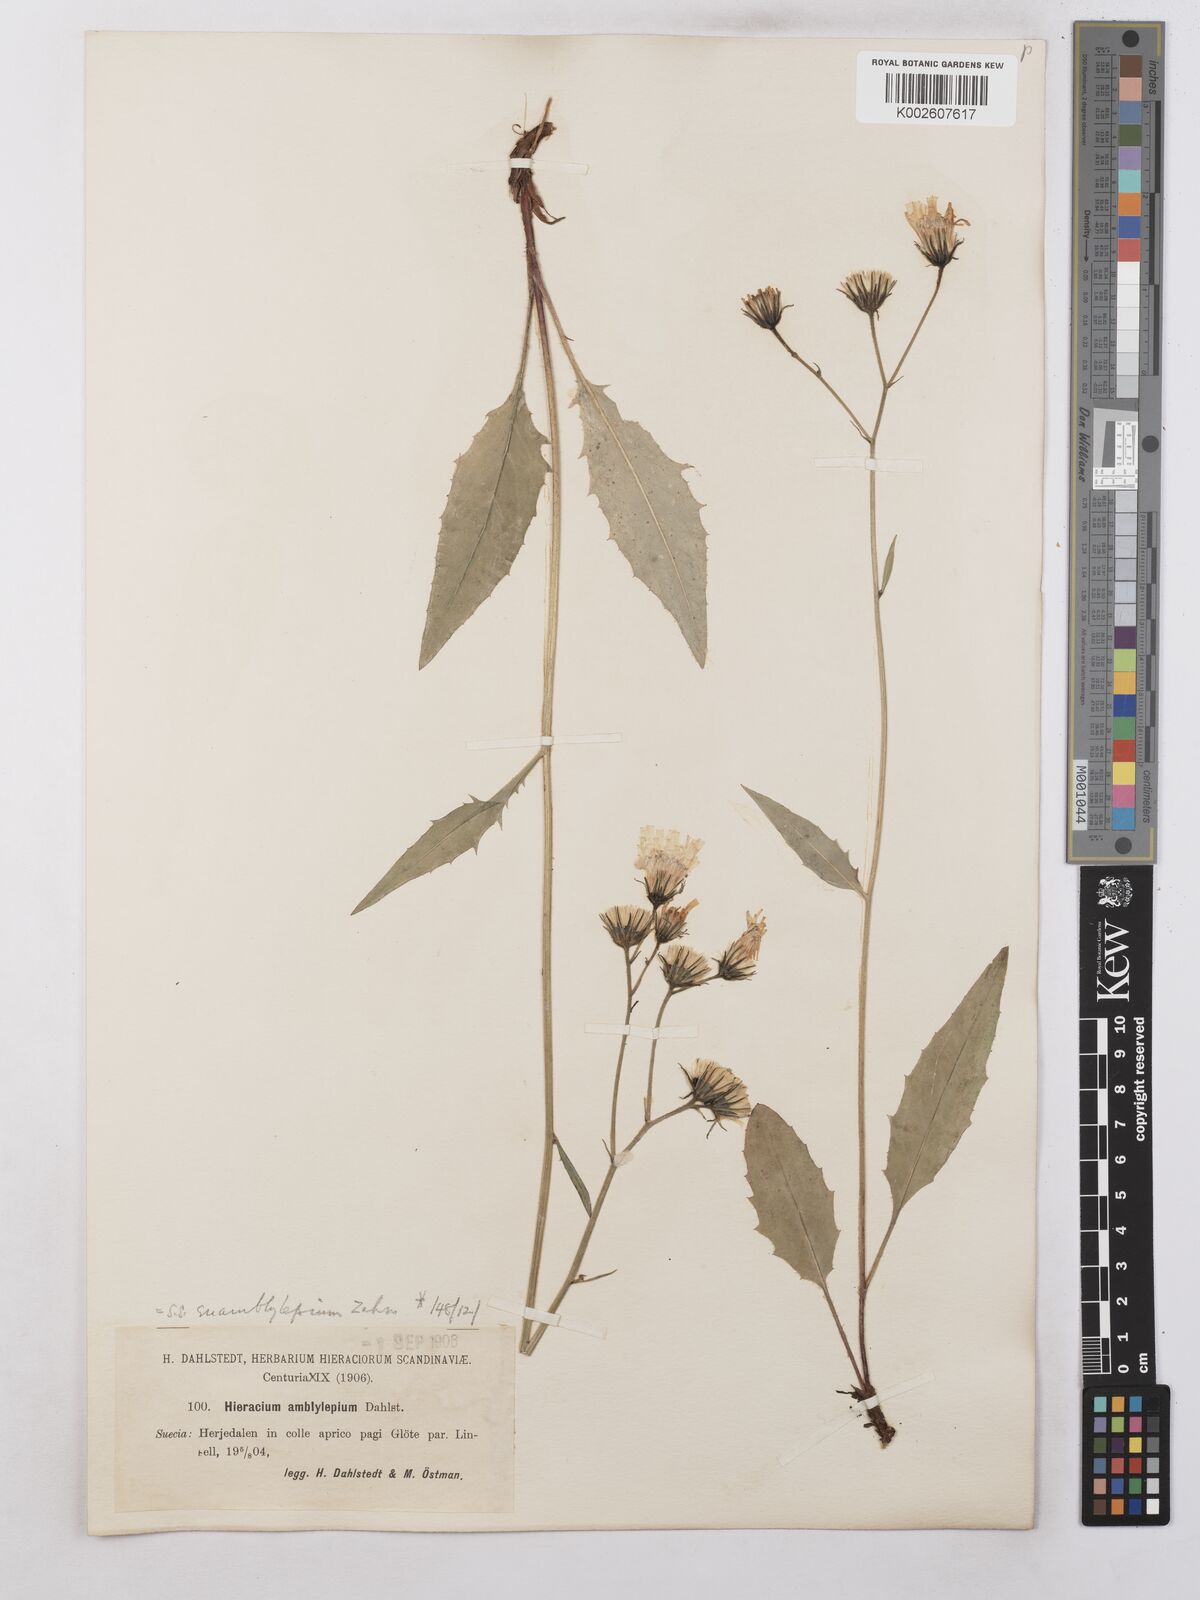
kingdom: Plantae
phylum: Tracheophyta
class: Magnoliopsida
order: Asterales
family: Asteraceae
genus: Hieracium
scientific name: Hieracium subramosum
